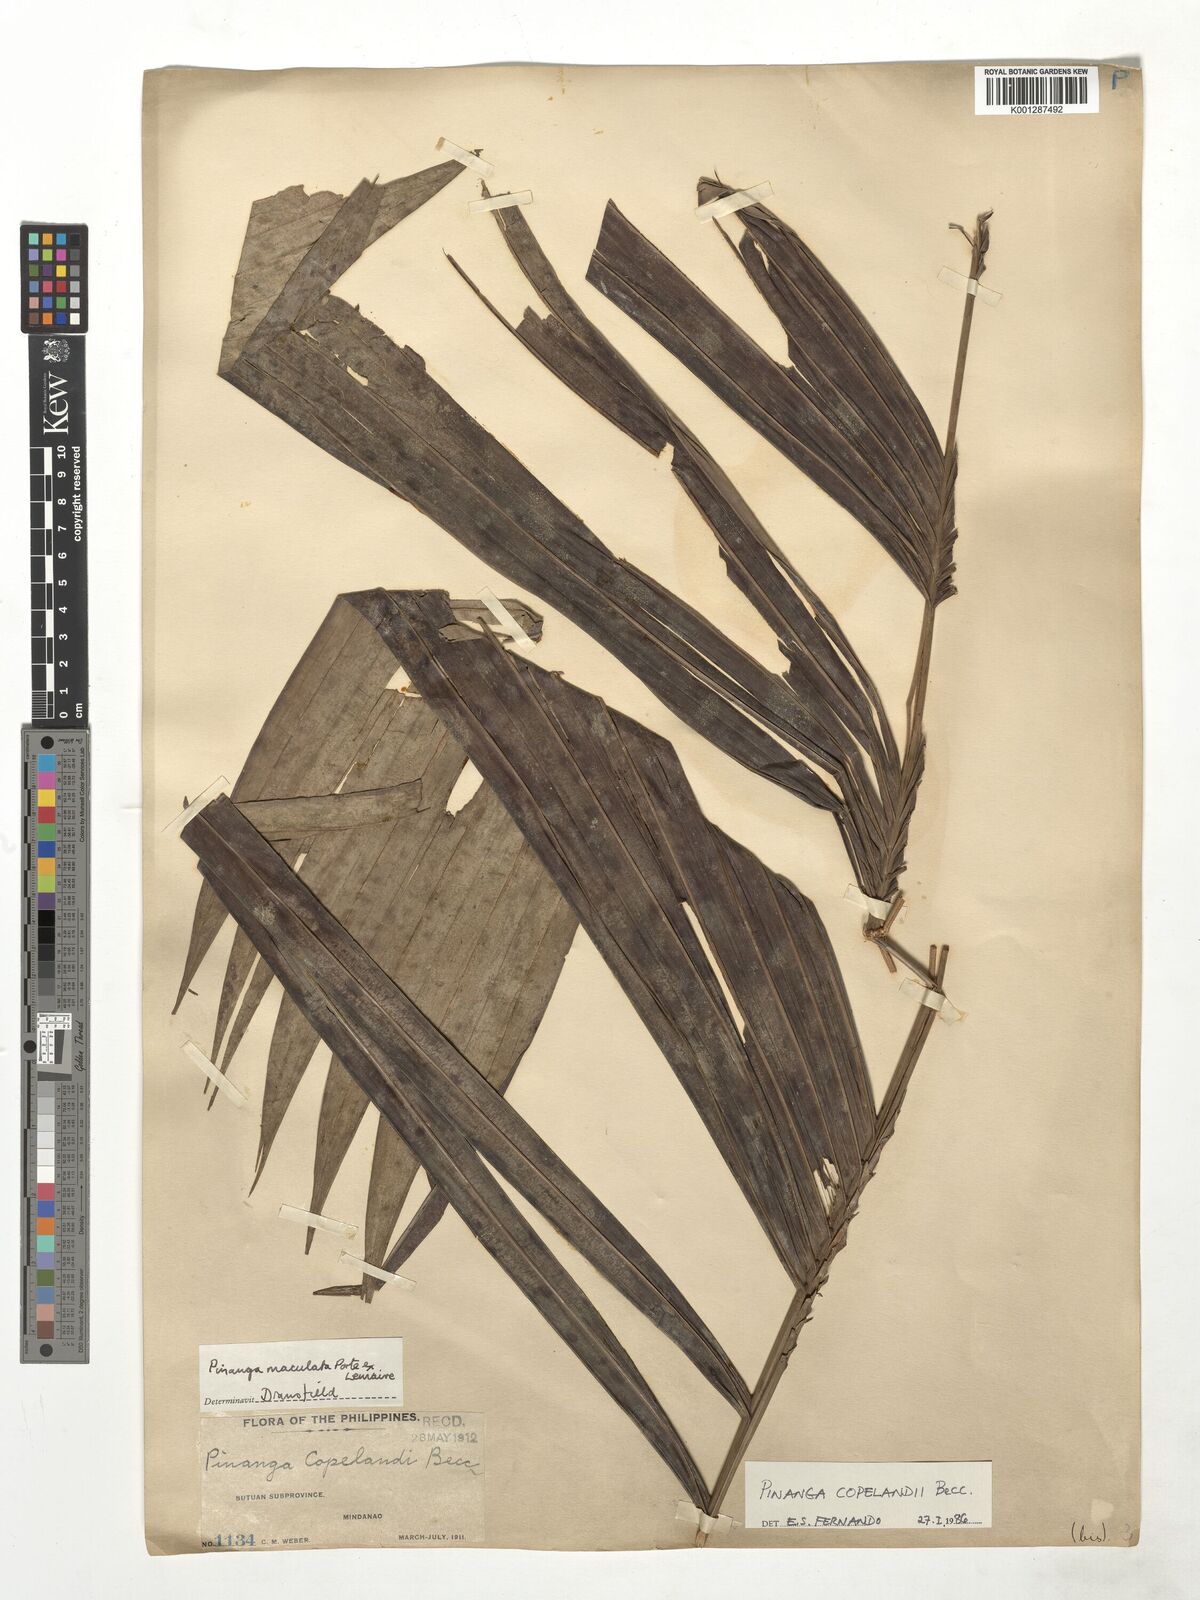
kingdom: Plantae
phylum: Tracheophyta
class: Liliopsida
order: Arecales
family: Arecaceae
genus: Pinanga
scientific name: Pinanga copelandii
